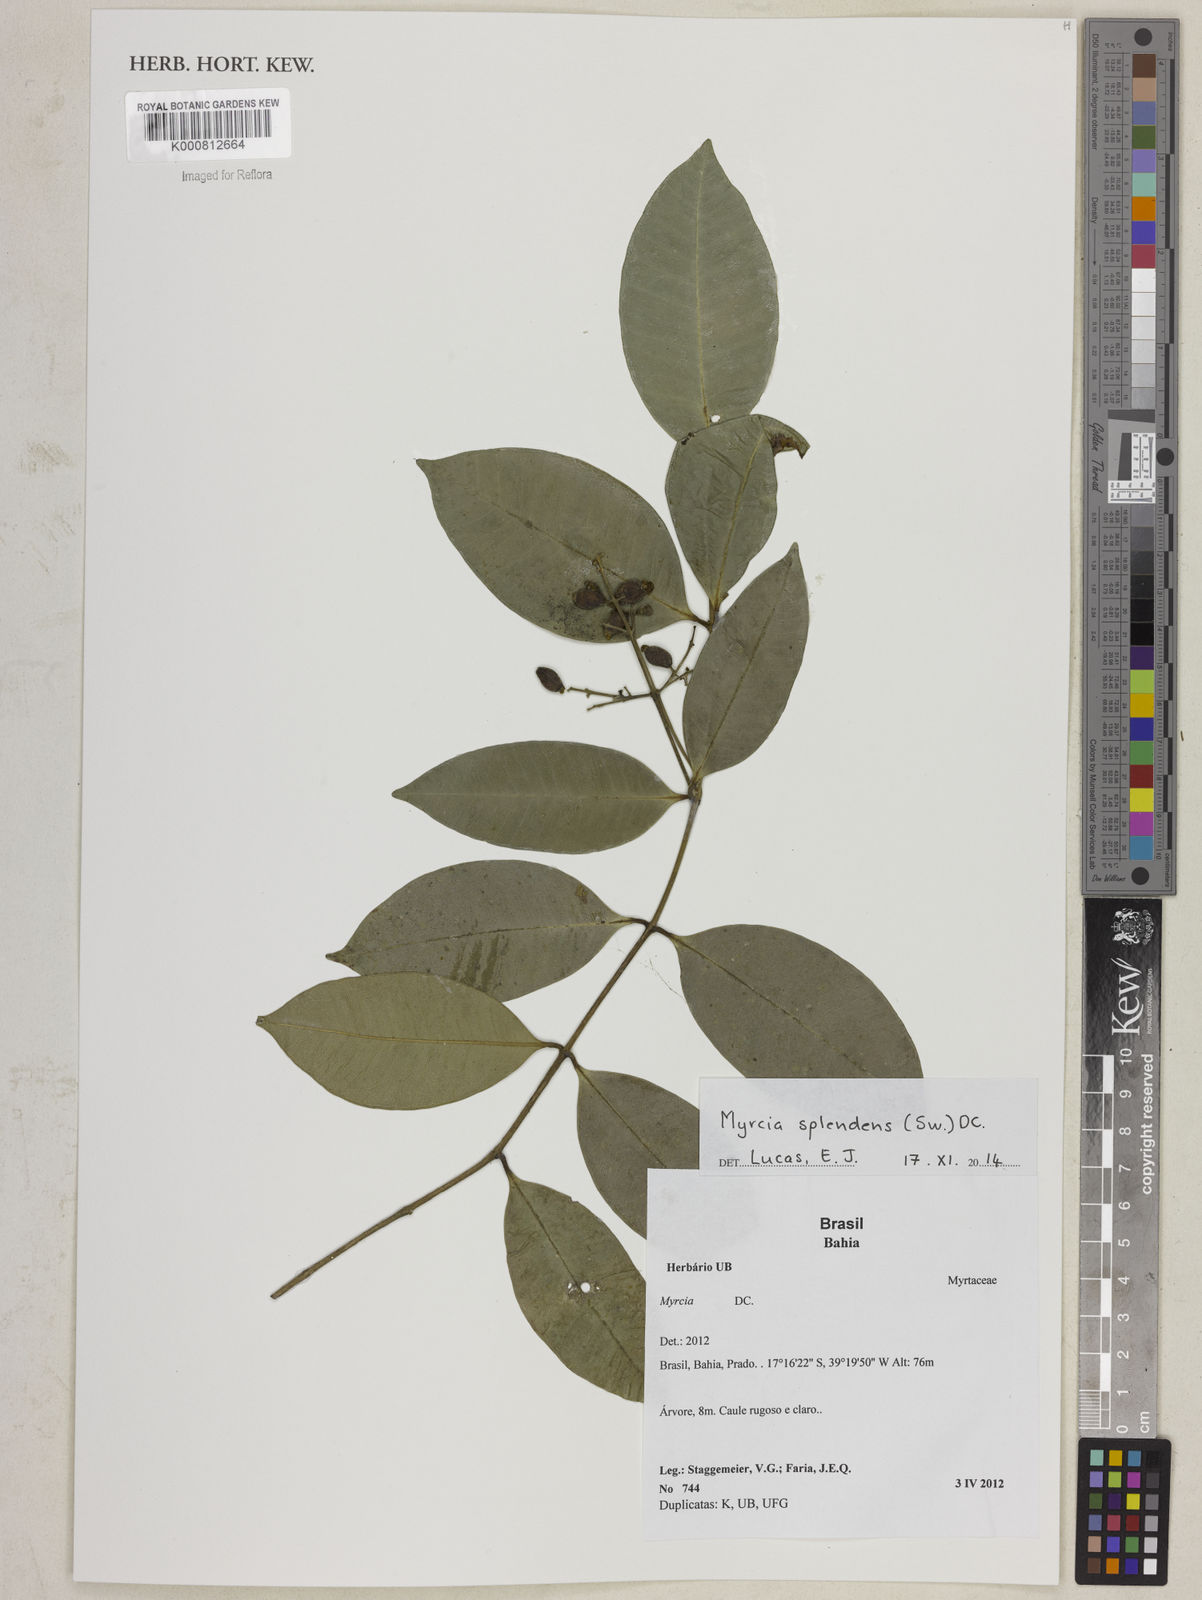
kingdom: Plantae
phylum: Tracheophyta
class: Magnoliopsida
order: Myrtales
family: Myrtaceae
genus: Myrcia
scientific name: Myrcia splendens
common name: Surinam cherry
